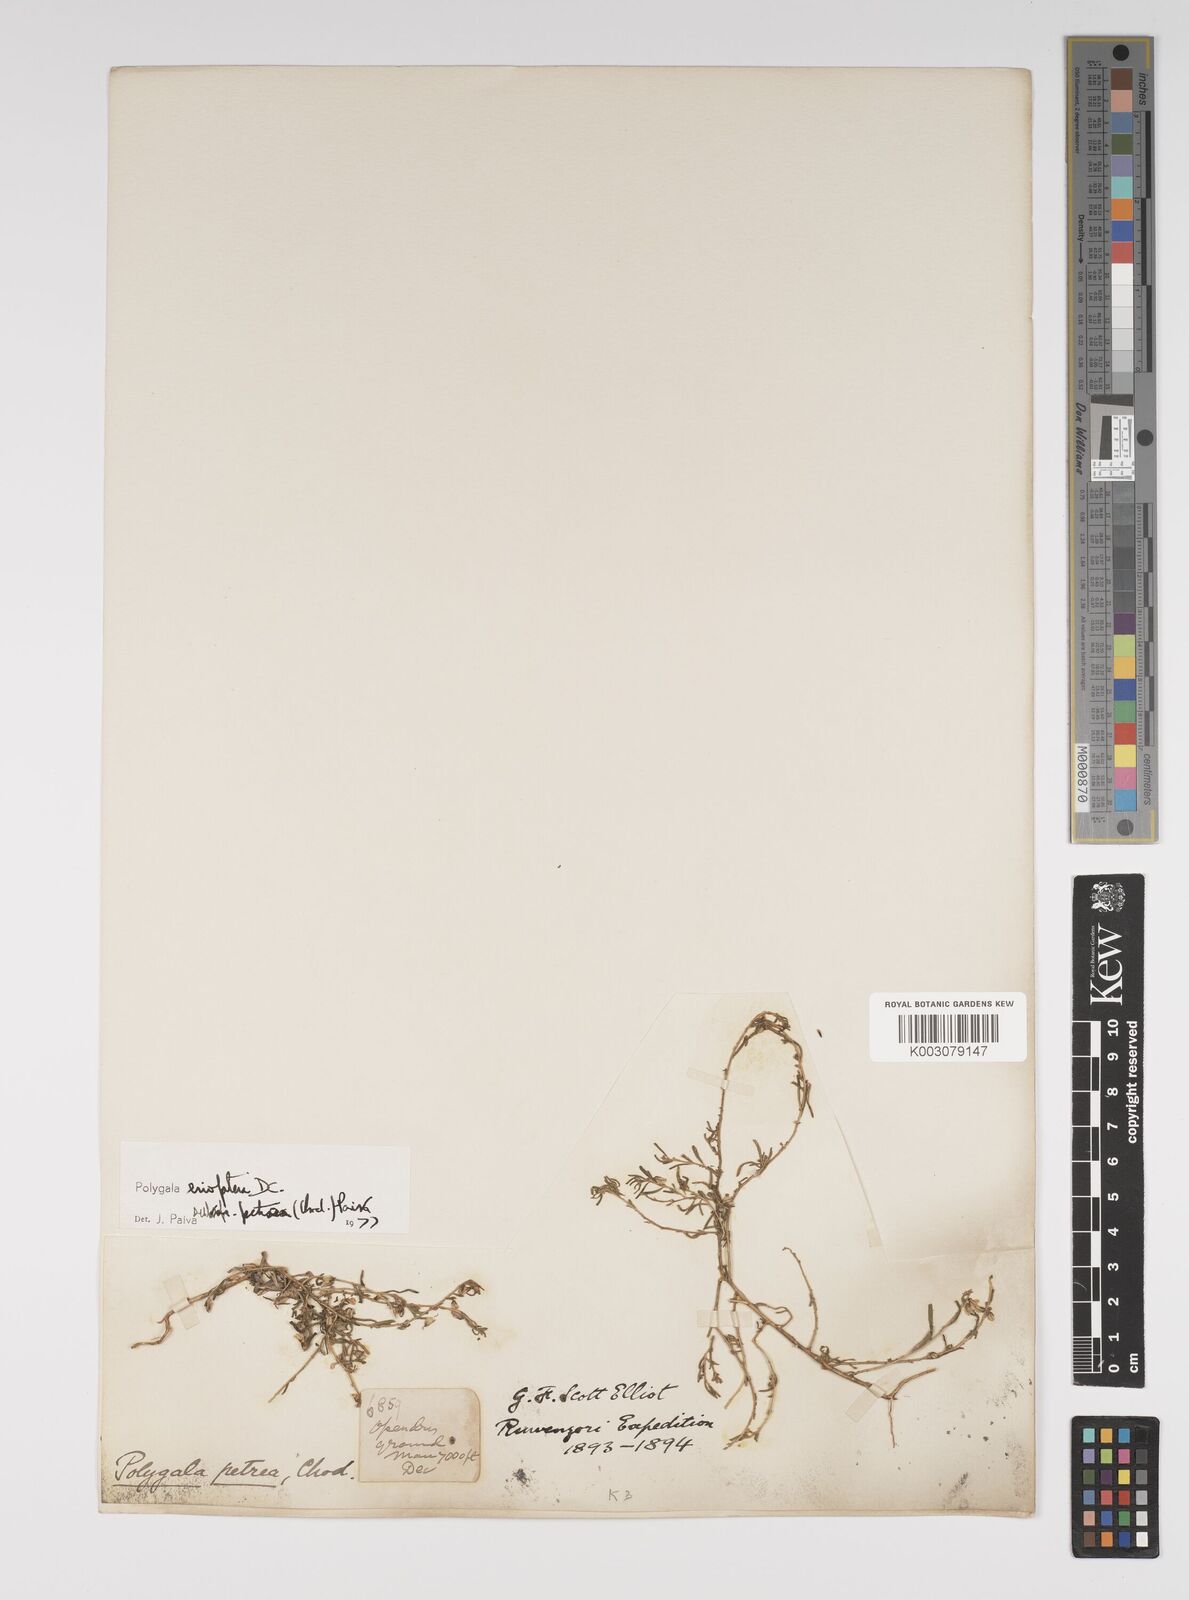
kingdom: Plantae
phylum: Tracheophyta
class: Magnoliopsida
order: Fabales
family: Polygalaceae
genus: Polygala
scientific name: Polygala erioptera
